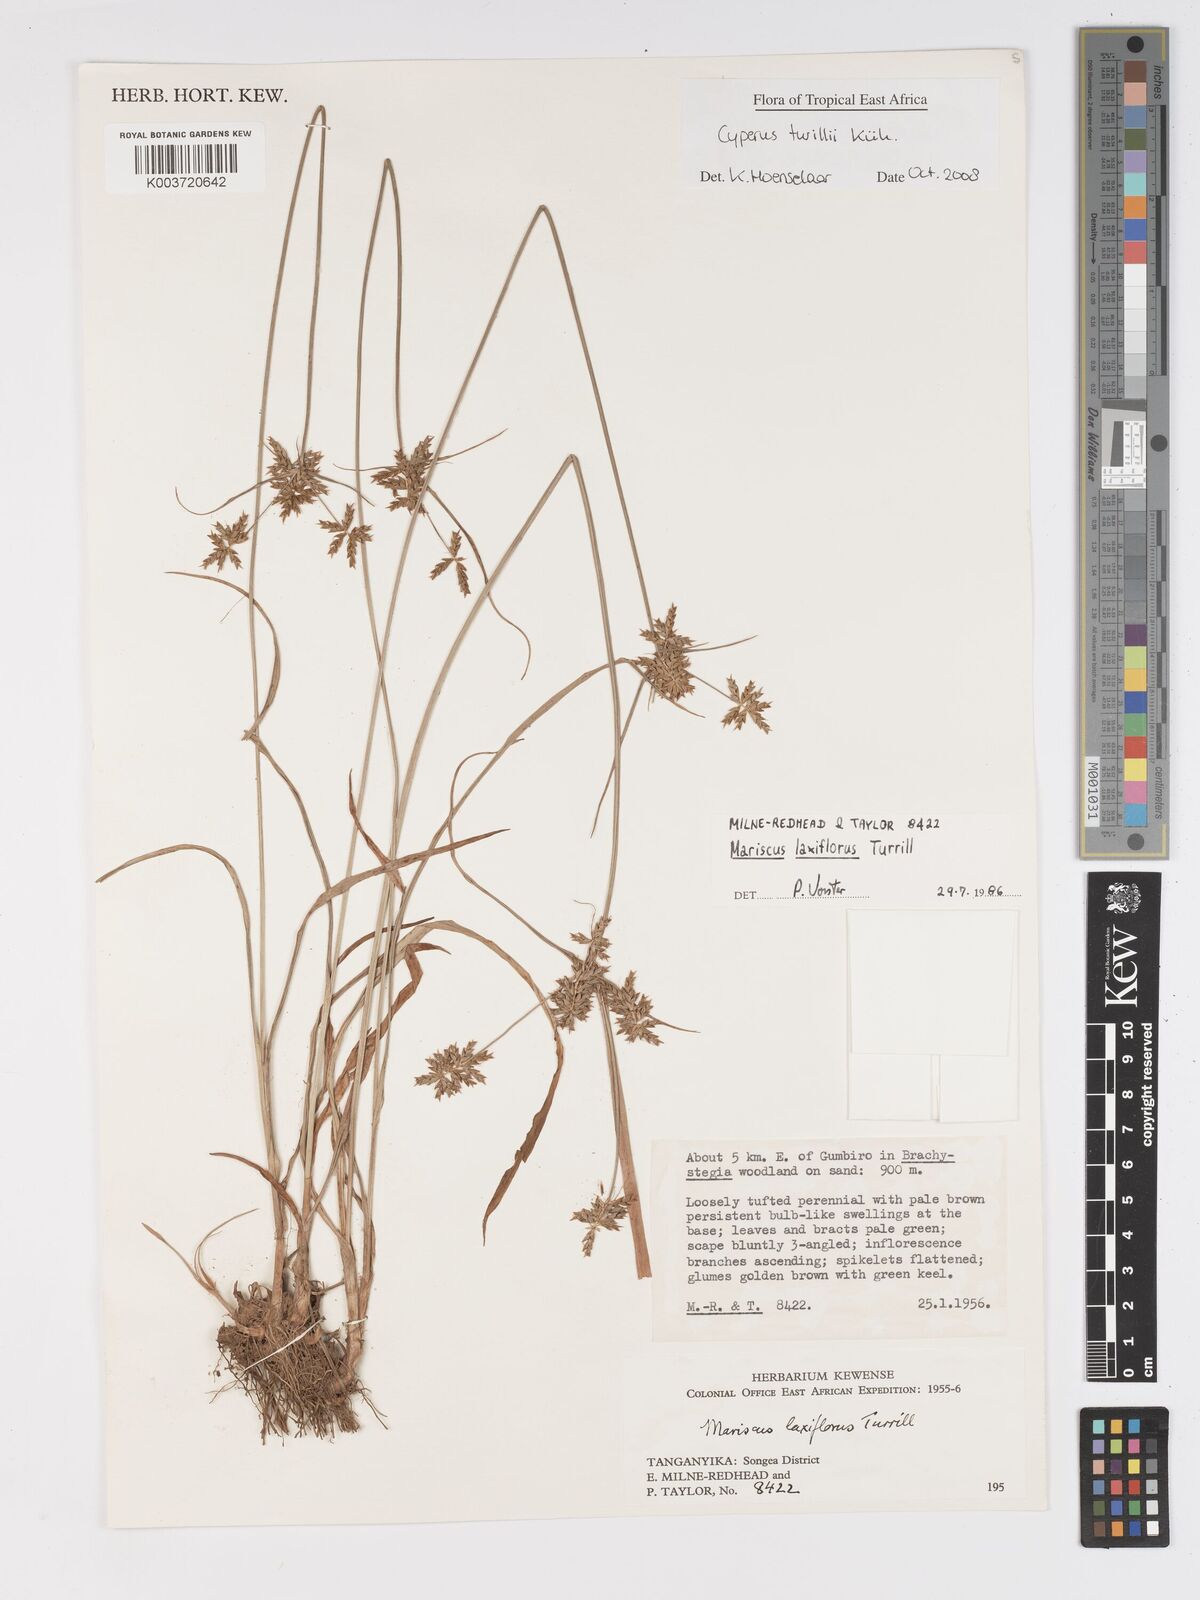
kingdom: Plantae
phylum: Tracheophyta
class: Liliopsida
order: Poales
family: Cyperaceae
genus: Cyperus
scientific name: Cyperus turrillii
